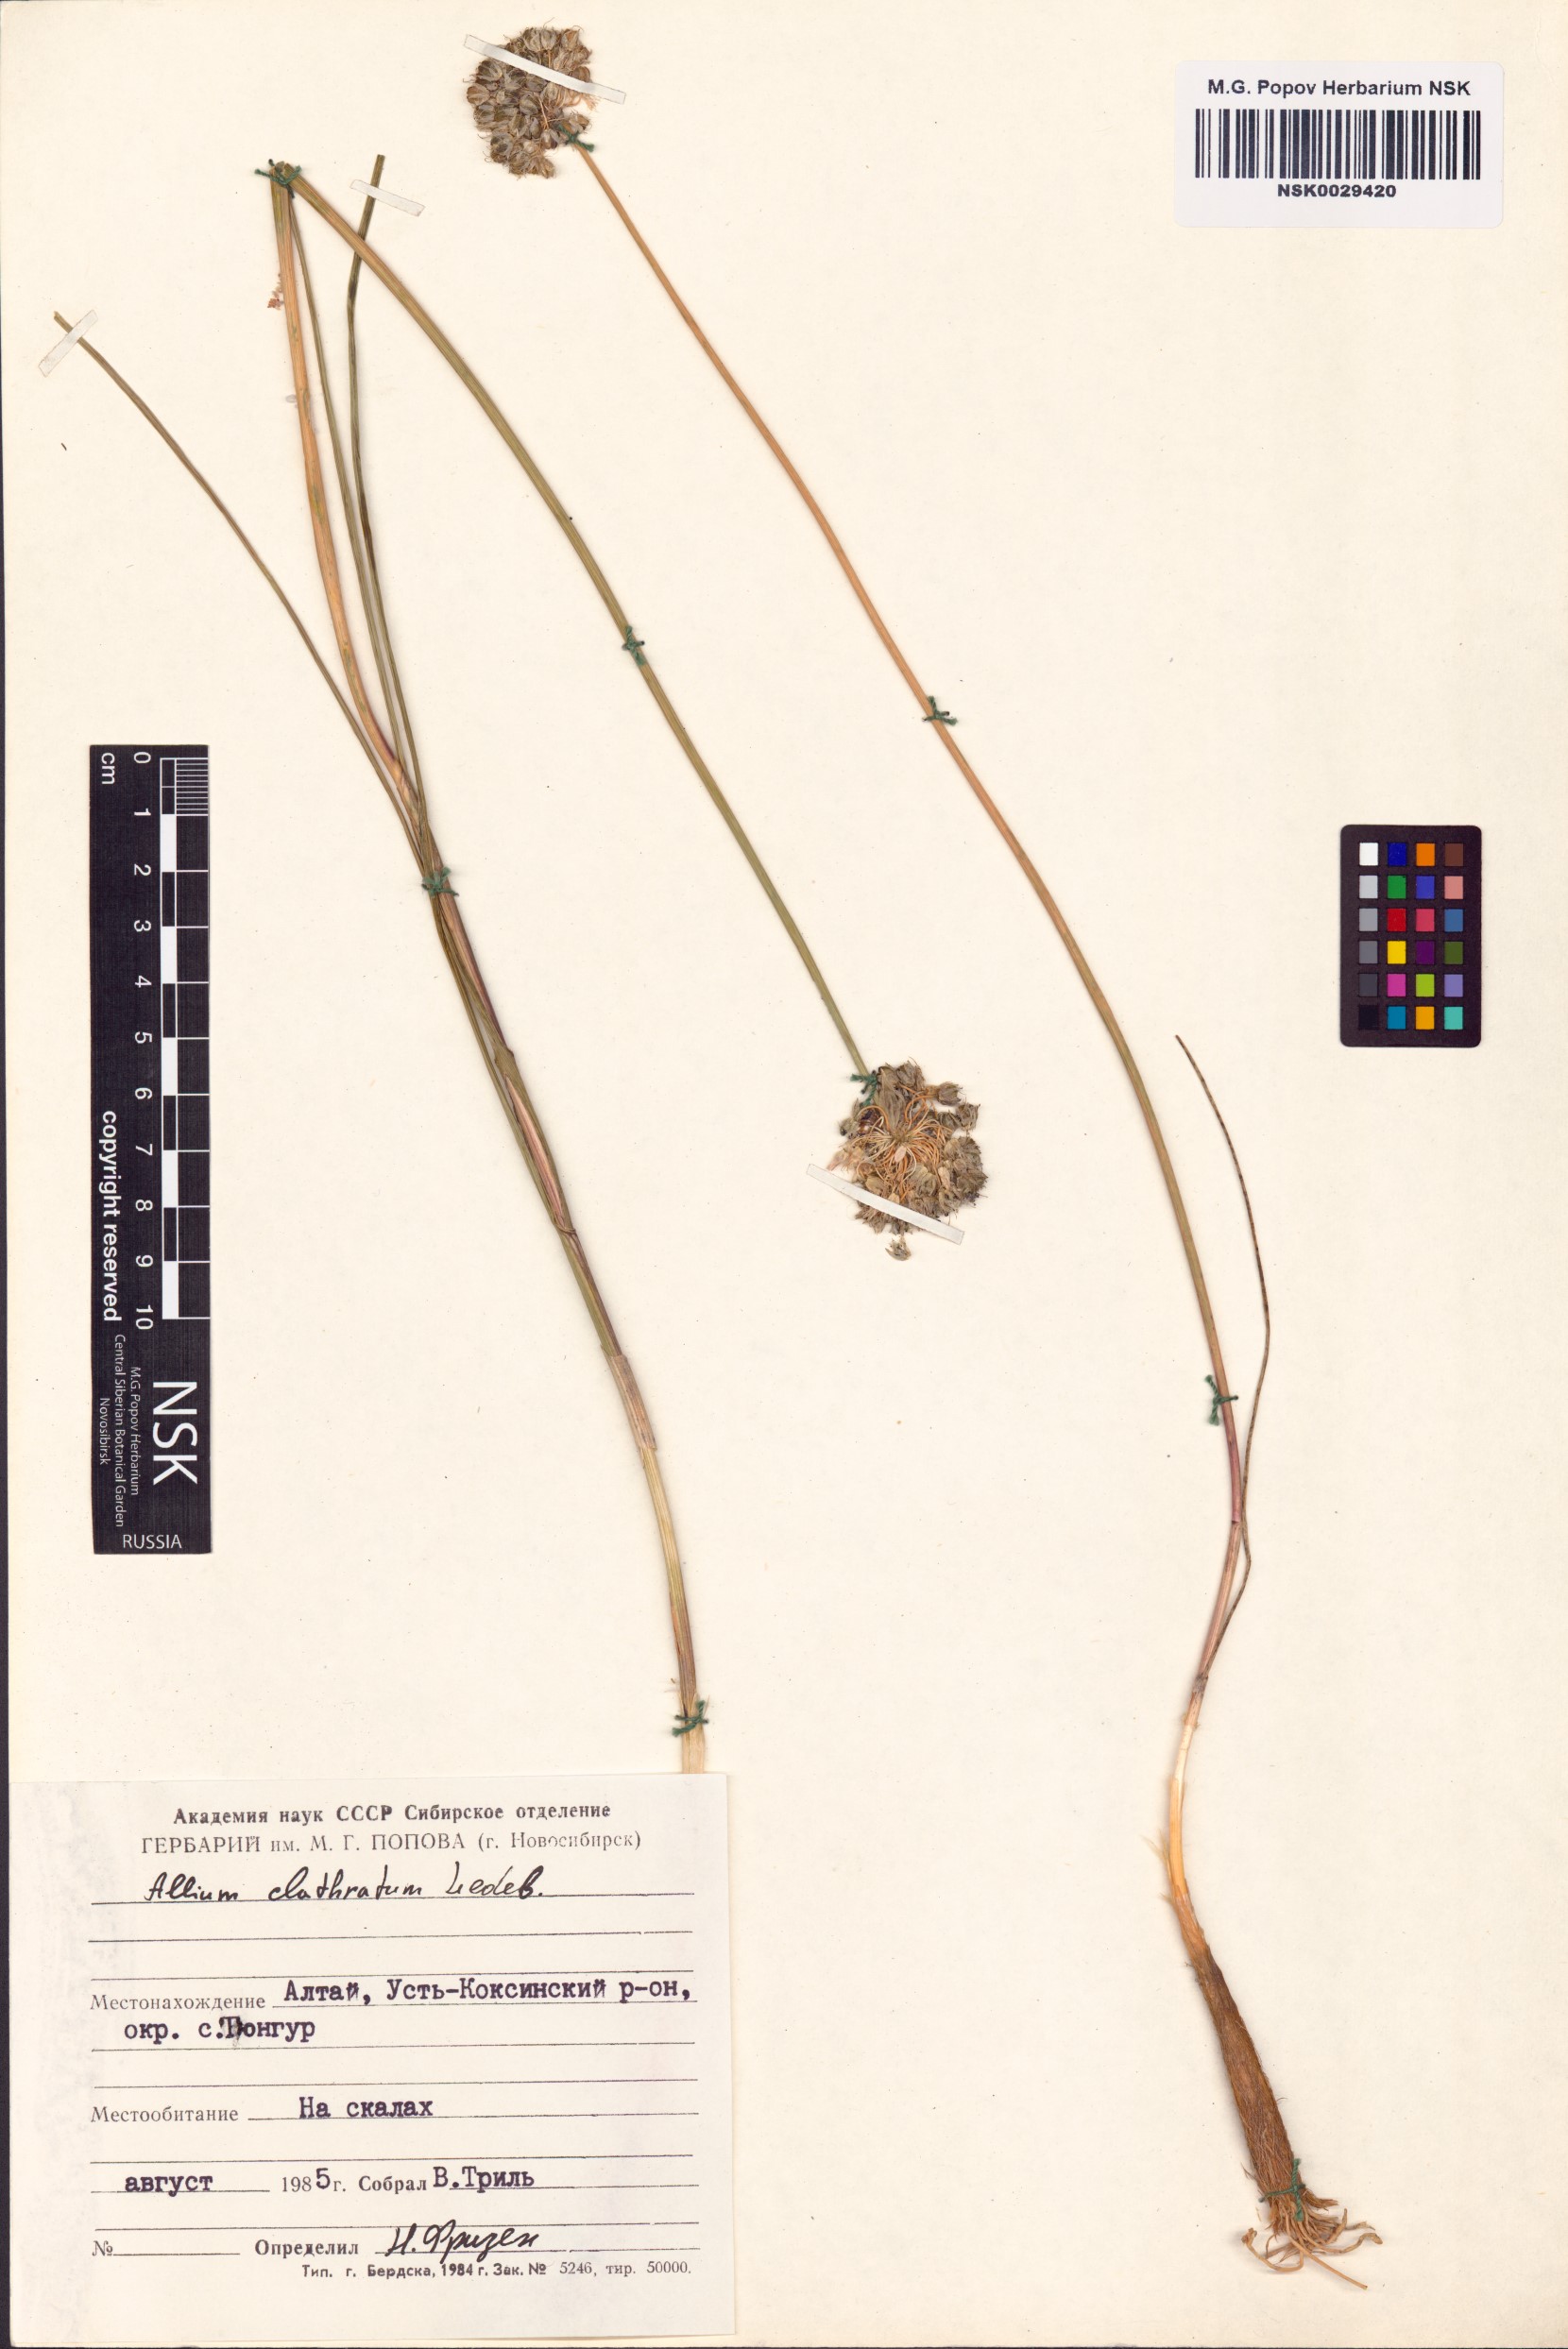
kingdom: Plantae
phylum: Tracheophyta
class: Liliopsida
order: Asparagales
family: Amaryllidaceae
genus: Allium
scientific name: Allium clathratum
